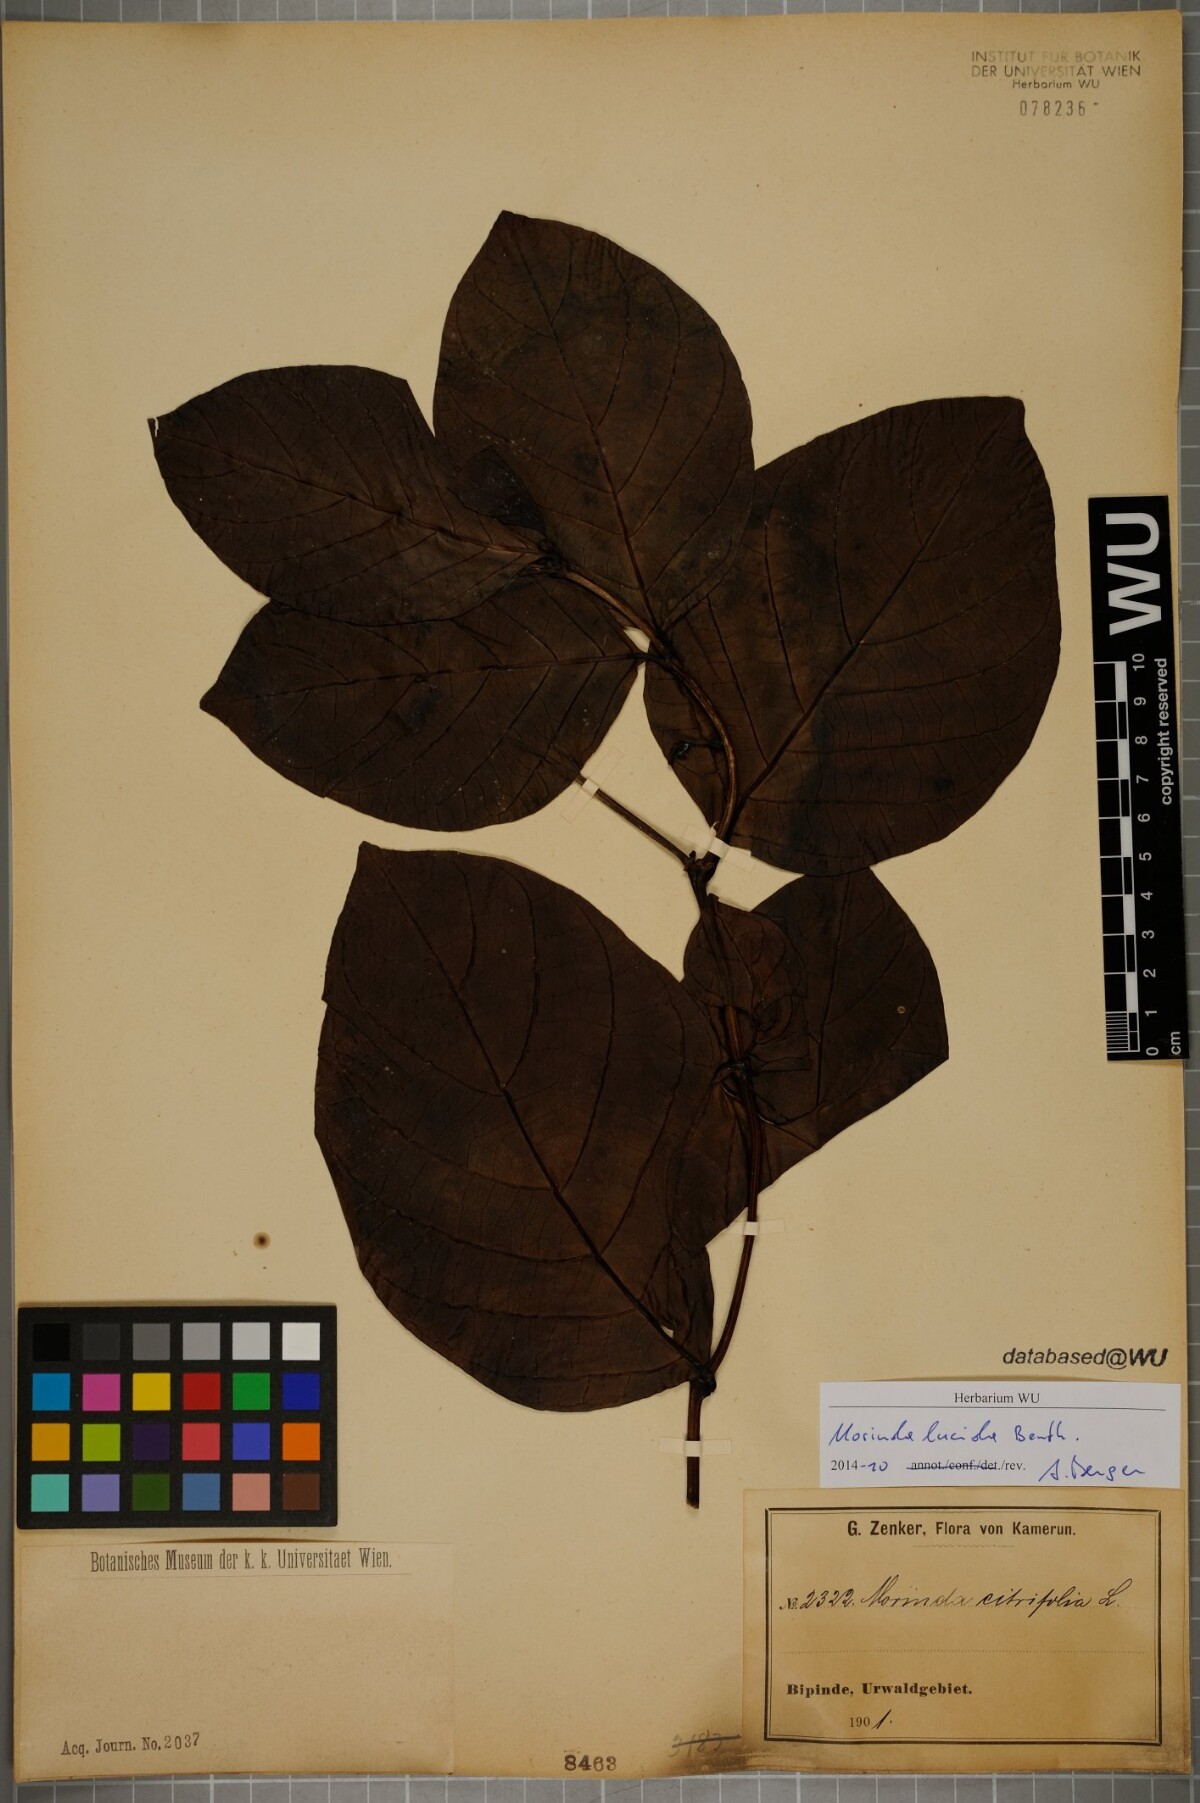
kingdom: Plantae
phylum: Tracheophyta
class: Magnoliopsida
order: Gentianales
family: Rubiaceae
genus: Morinda
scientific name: Morinda lucida
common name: Brimstonetree
